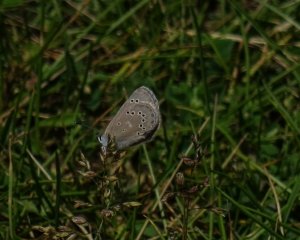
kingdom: Animalia
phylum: Arthropoda
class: Insecta
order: Lepidoptera
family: Lycaenidae
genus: Glaucopsyche
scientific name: Glaucopsyche lygdamus
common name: Silvery Blue
